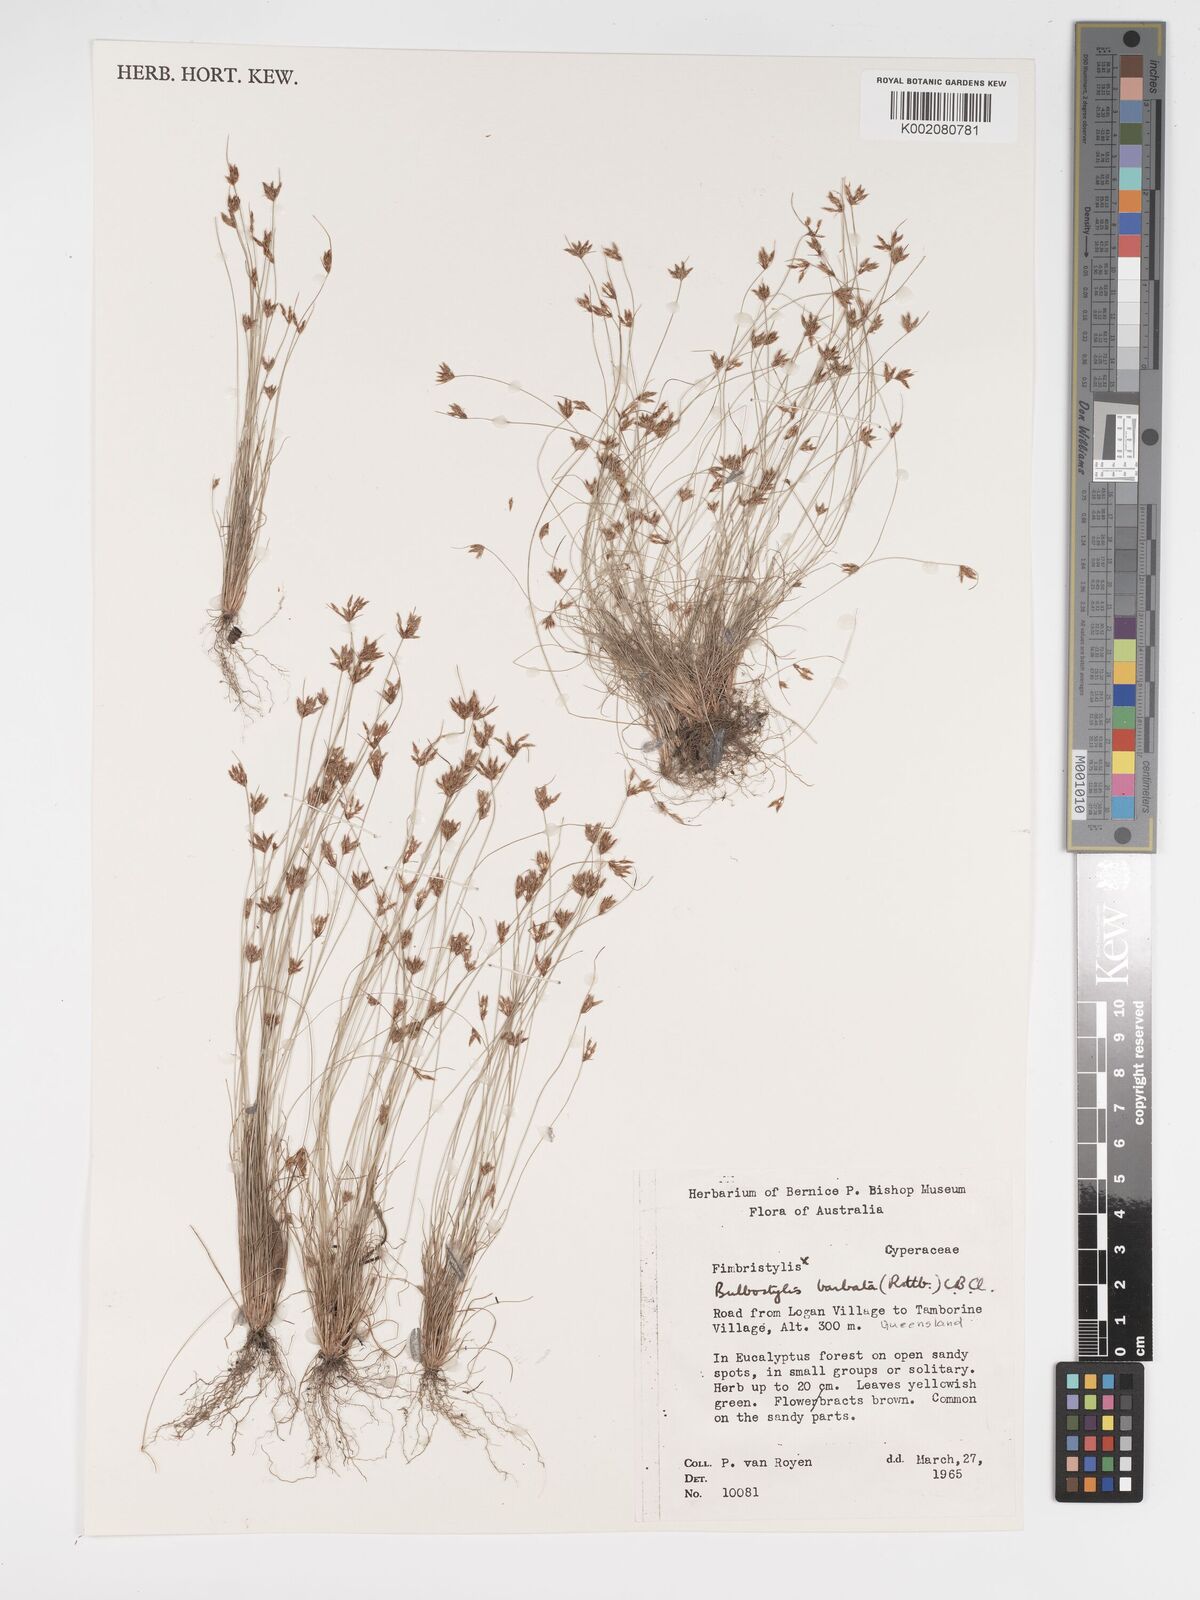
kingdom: Plantae
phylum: Tracheophyta
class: Liliopsida
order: Poales
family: Cyperaceae
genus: Bulbostylis
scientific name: Bulbostylis barbata
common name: Watergrass
